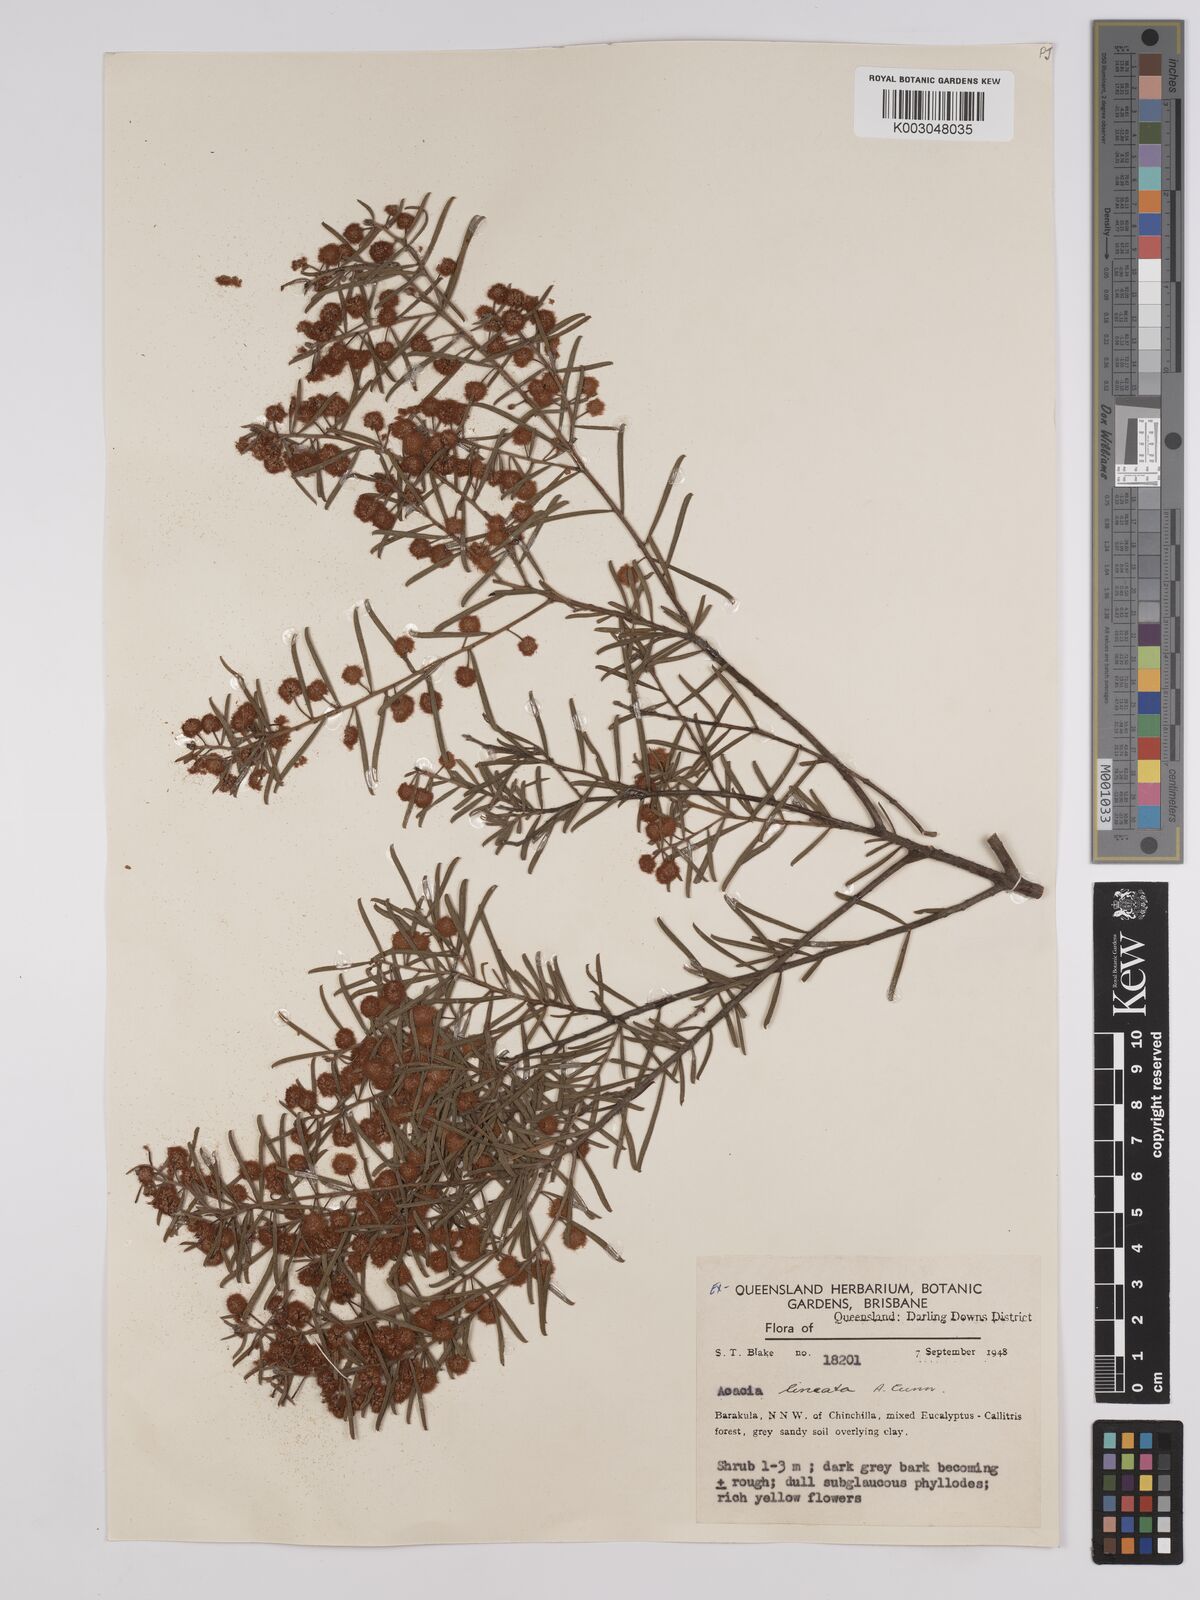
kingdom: Plantae
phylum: Tracheophyta
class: Magnoliopsida
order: Fabales
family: Fabaceae
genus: Acacia
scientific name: Acacia lineata
